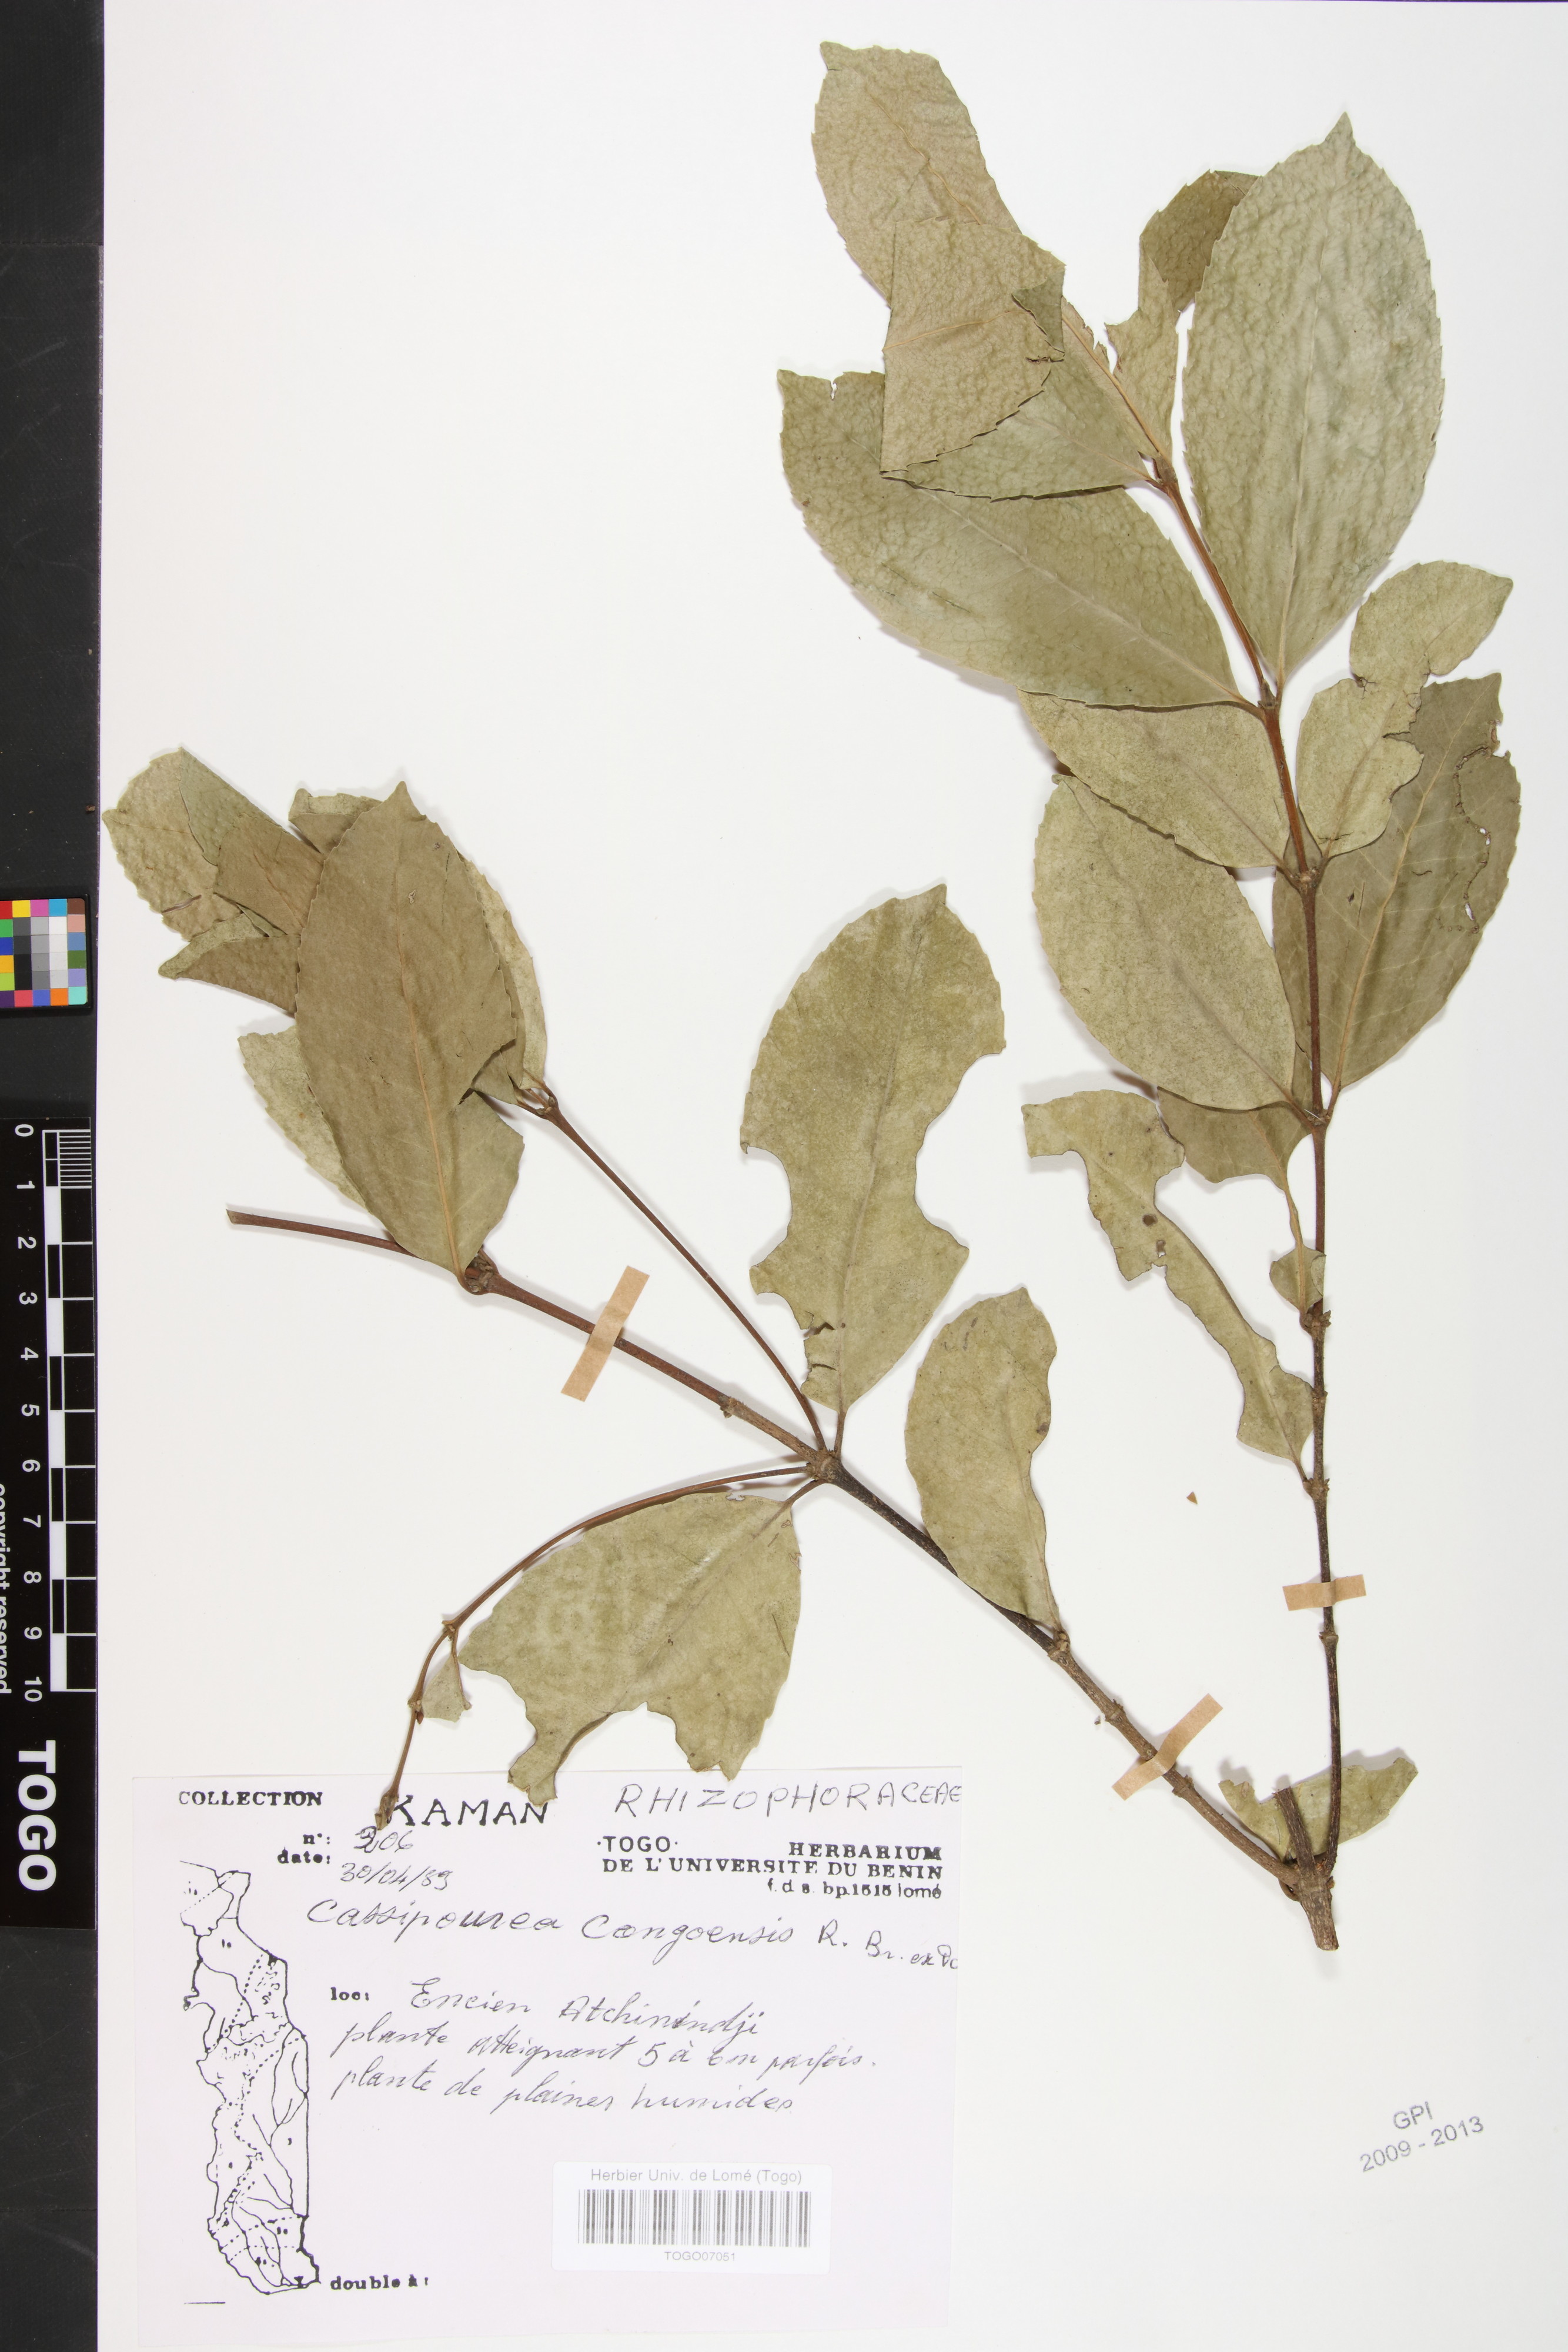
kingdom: Plantae
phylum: Tracheophyta
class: Magnoliopsida
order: Malpighiales
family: Rhizophoraceae
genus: Cassipourea
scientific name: Cassipourea congoensis
